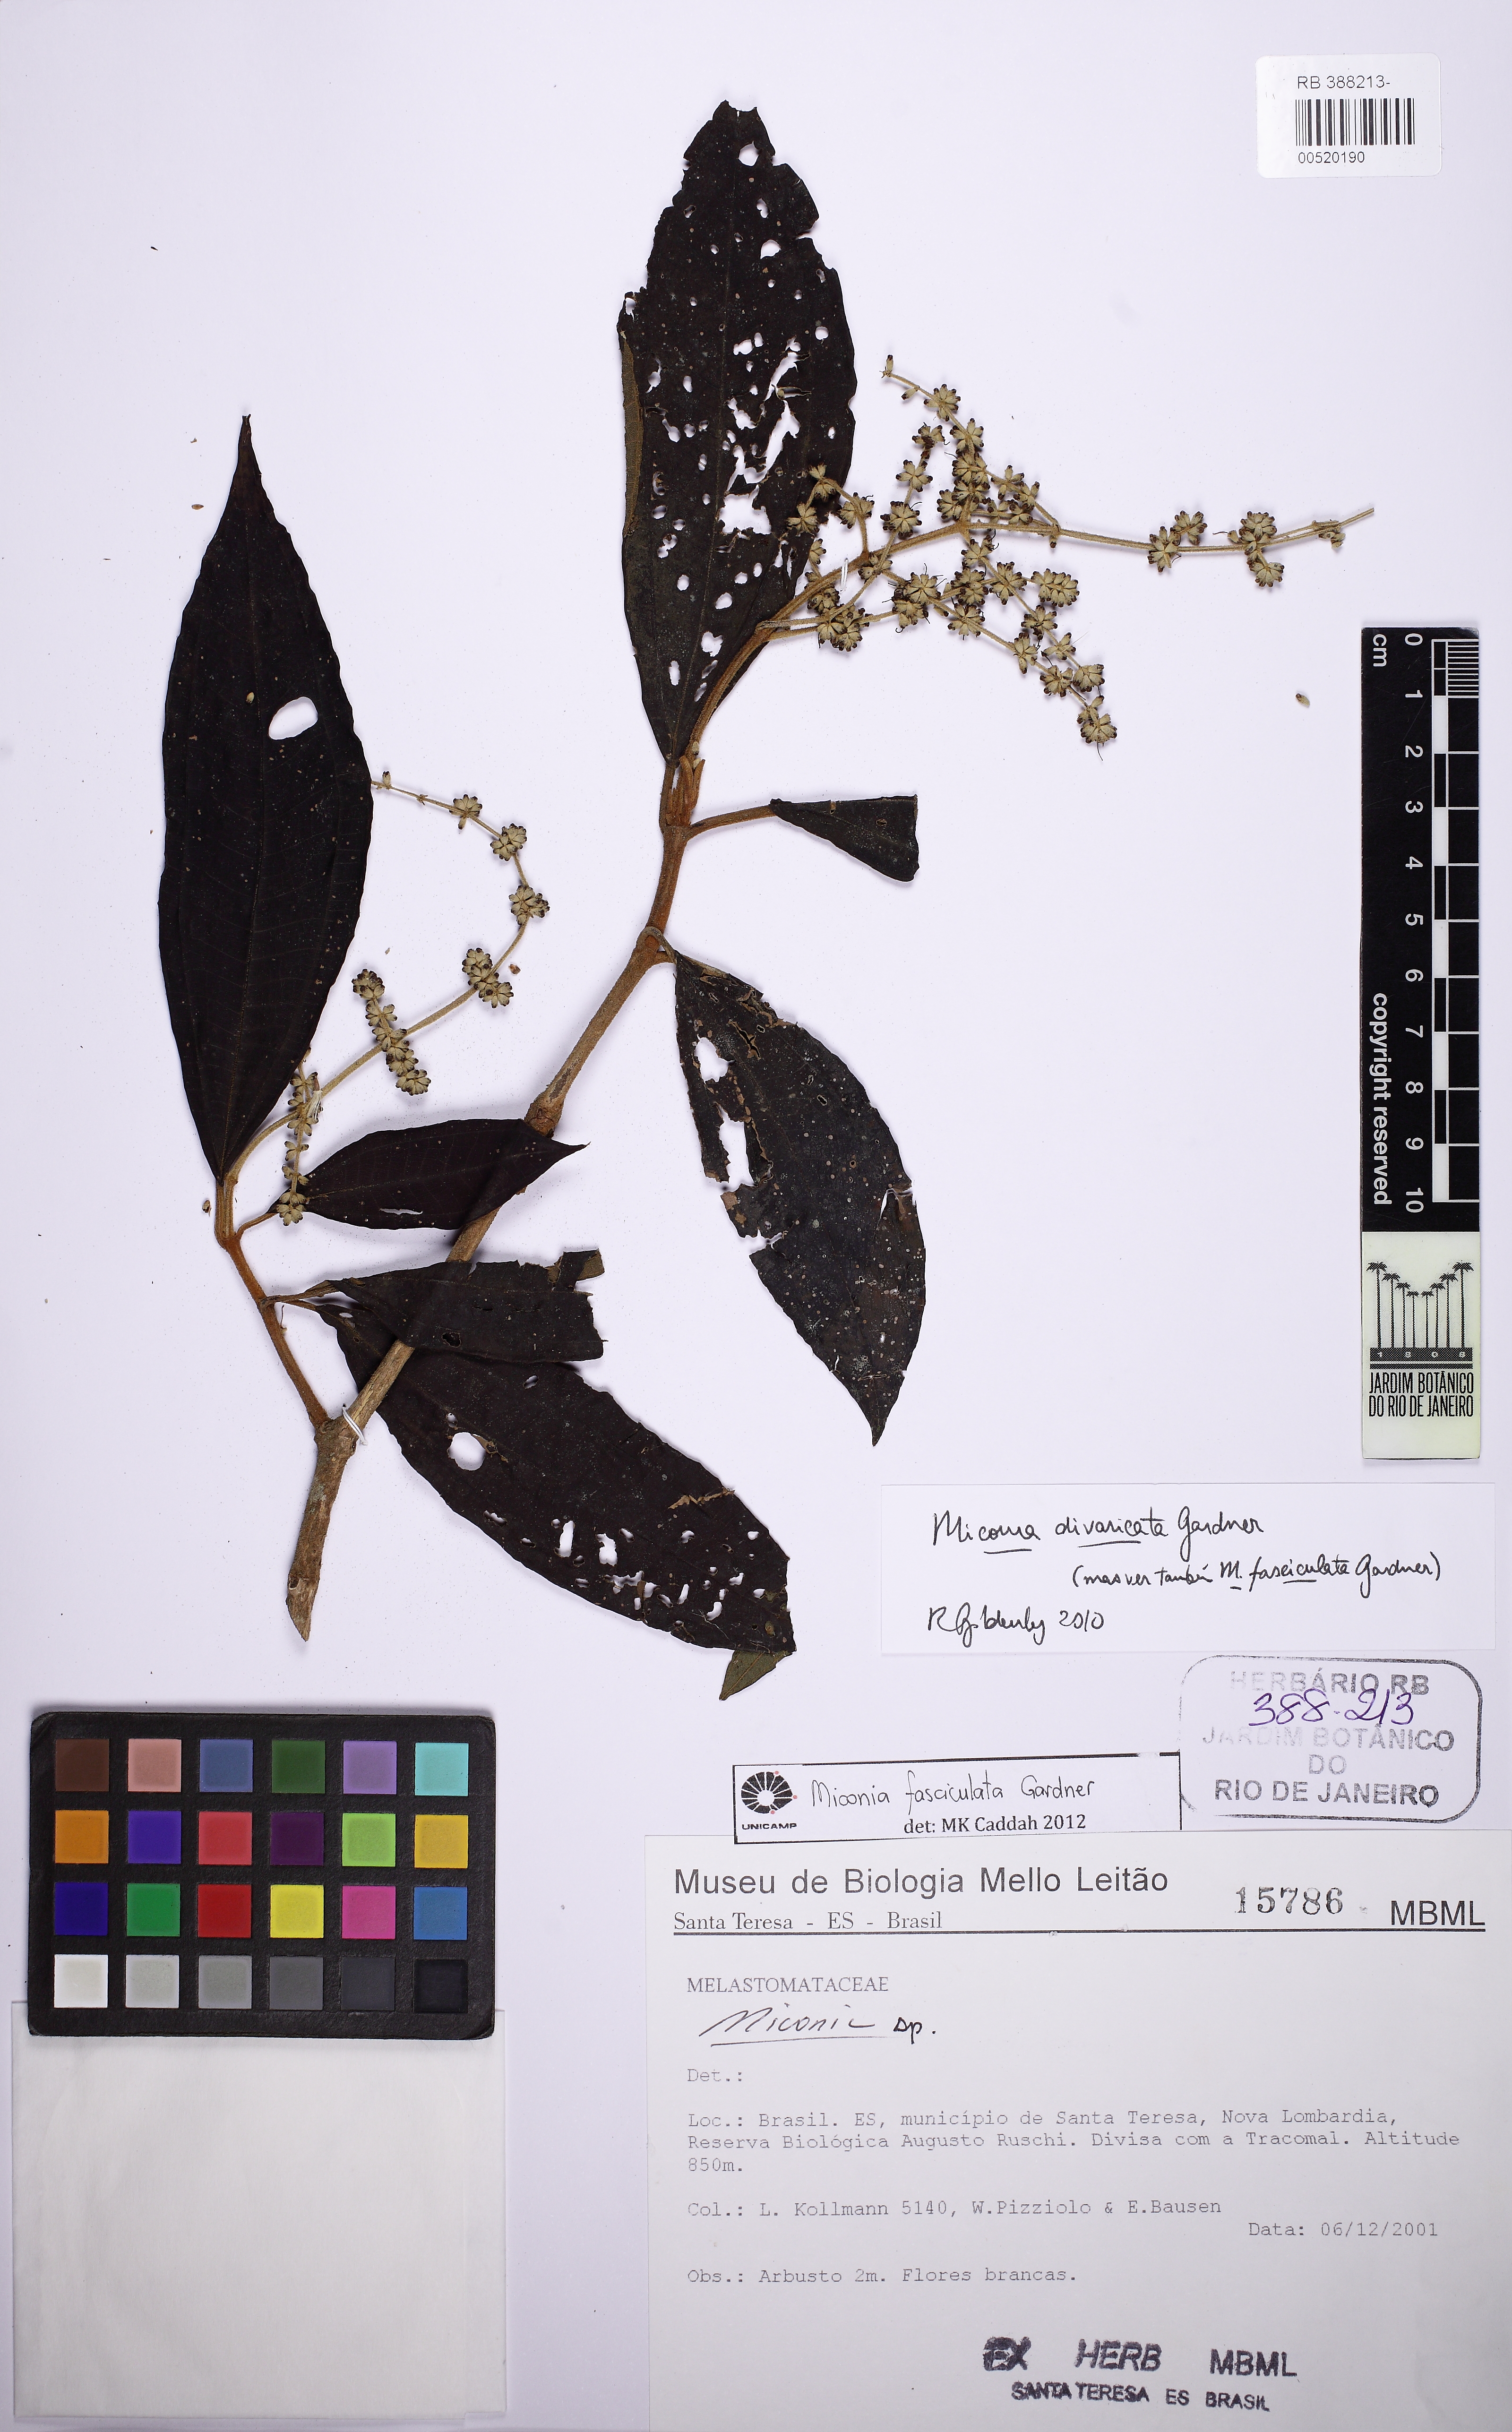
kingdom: Plantae
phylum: Tracheophyta
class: Magnoliopsida
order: Myrtales
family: Melastomataceae
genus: Miconia
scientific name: Miconia fasciculata
